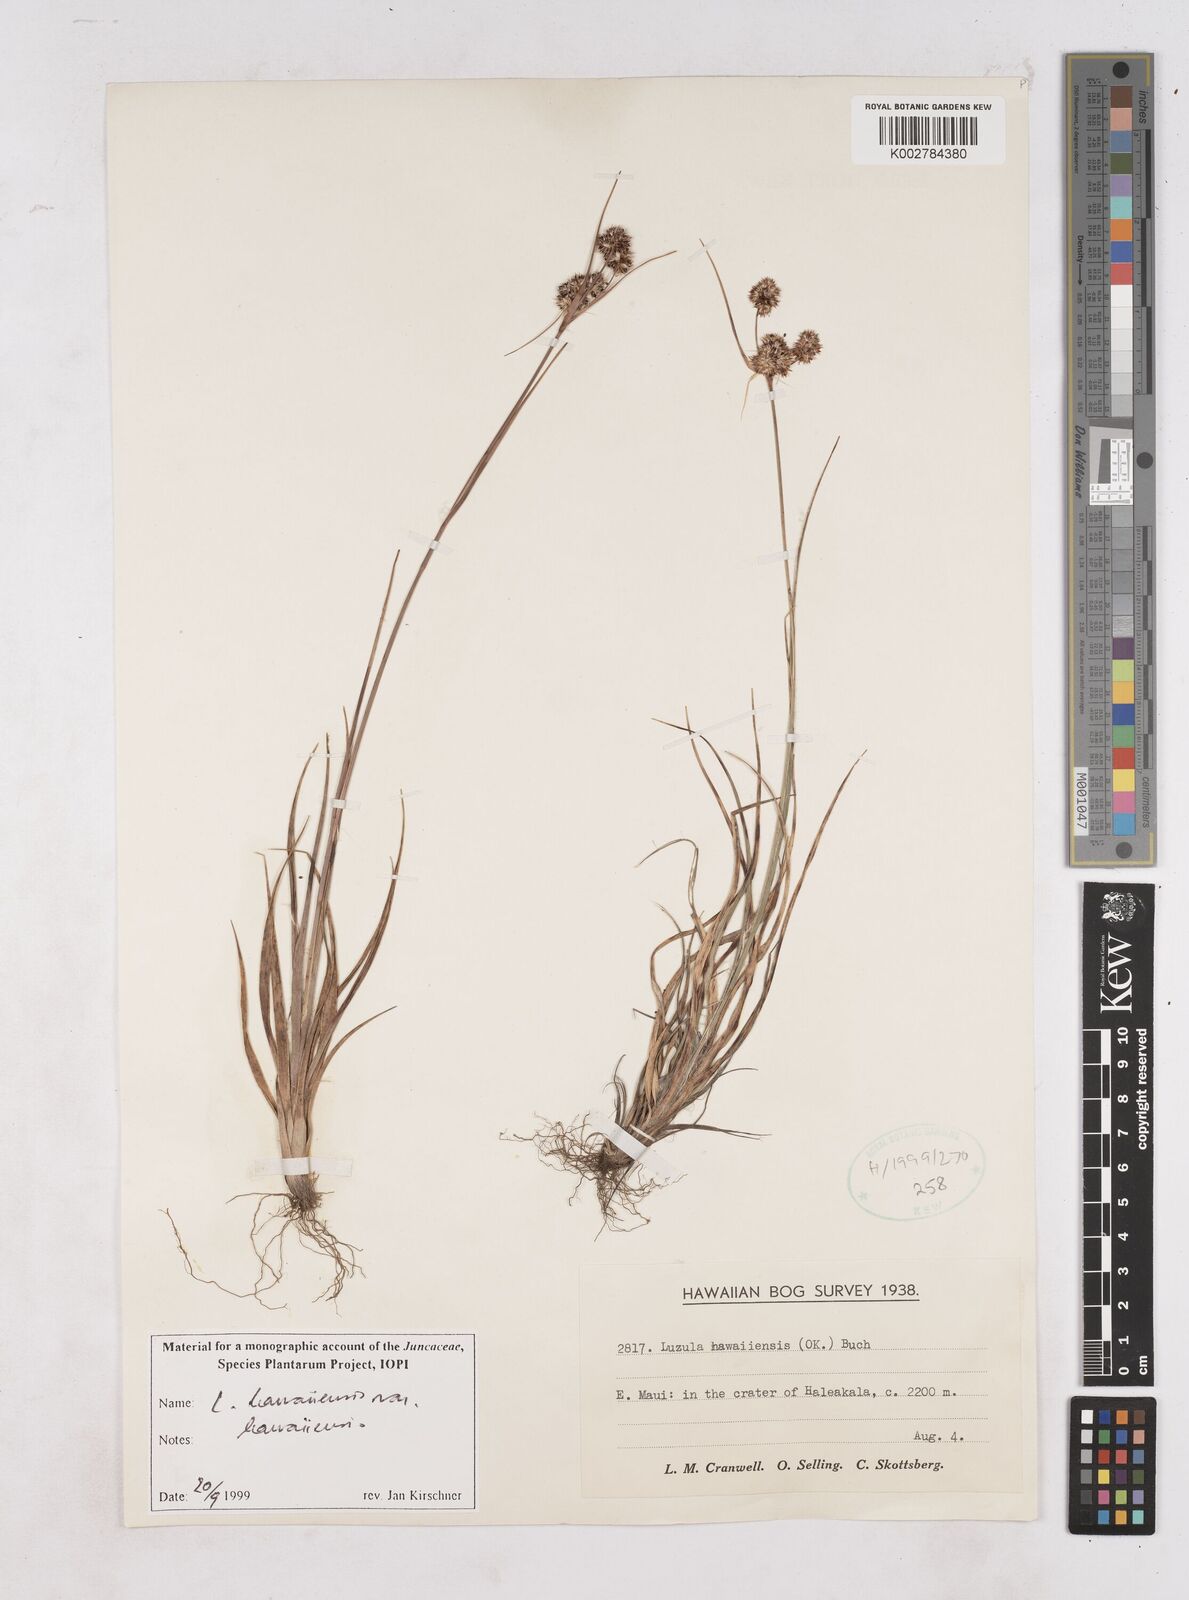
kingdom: Plantae
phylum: Tracheophyta
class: Liliopsida
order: Poales
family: Juncaceae
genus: Luzula
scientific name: Luzula campestris
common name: Field wood-rush
